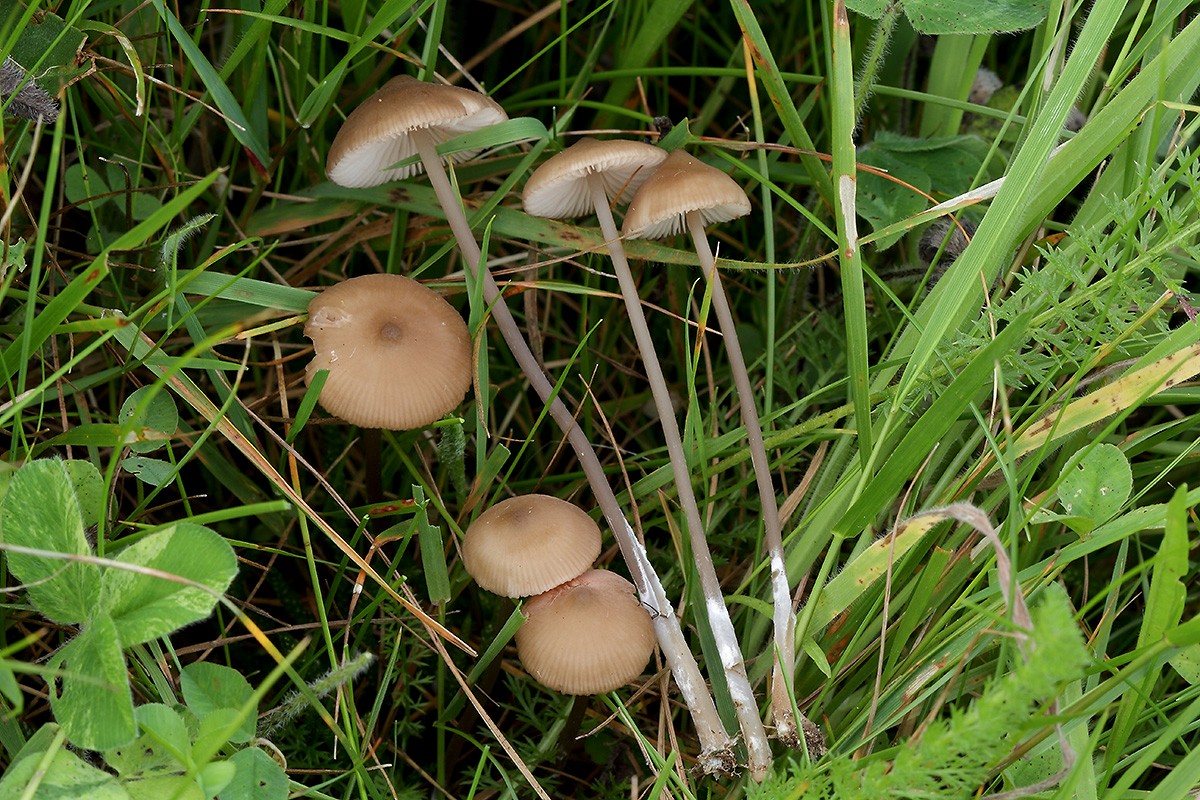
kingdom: Fungi
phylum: Basidiomycota
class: Agaricomycetes
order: Agaricales
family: Entolomataceae
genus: Entoloma
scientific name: Entoloma infula
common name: hvidbladet rødblad
